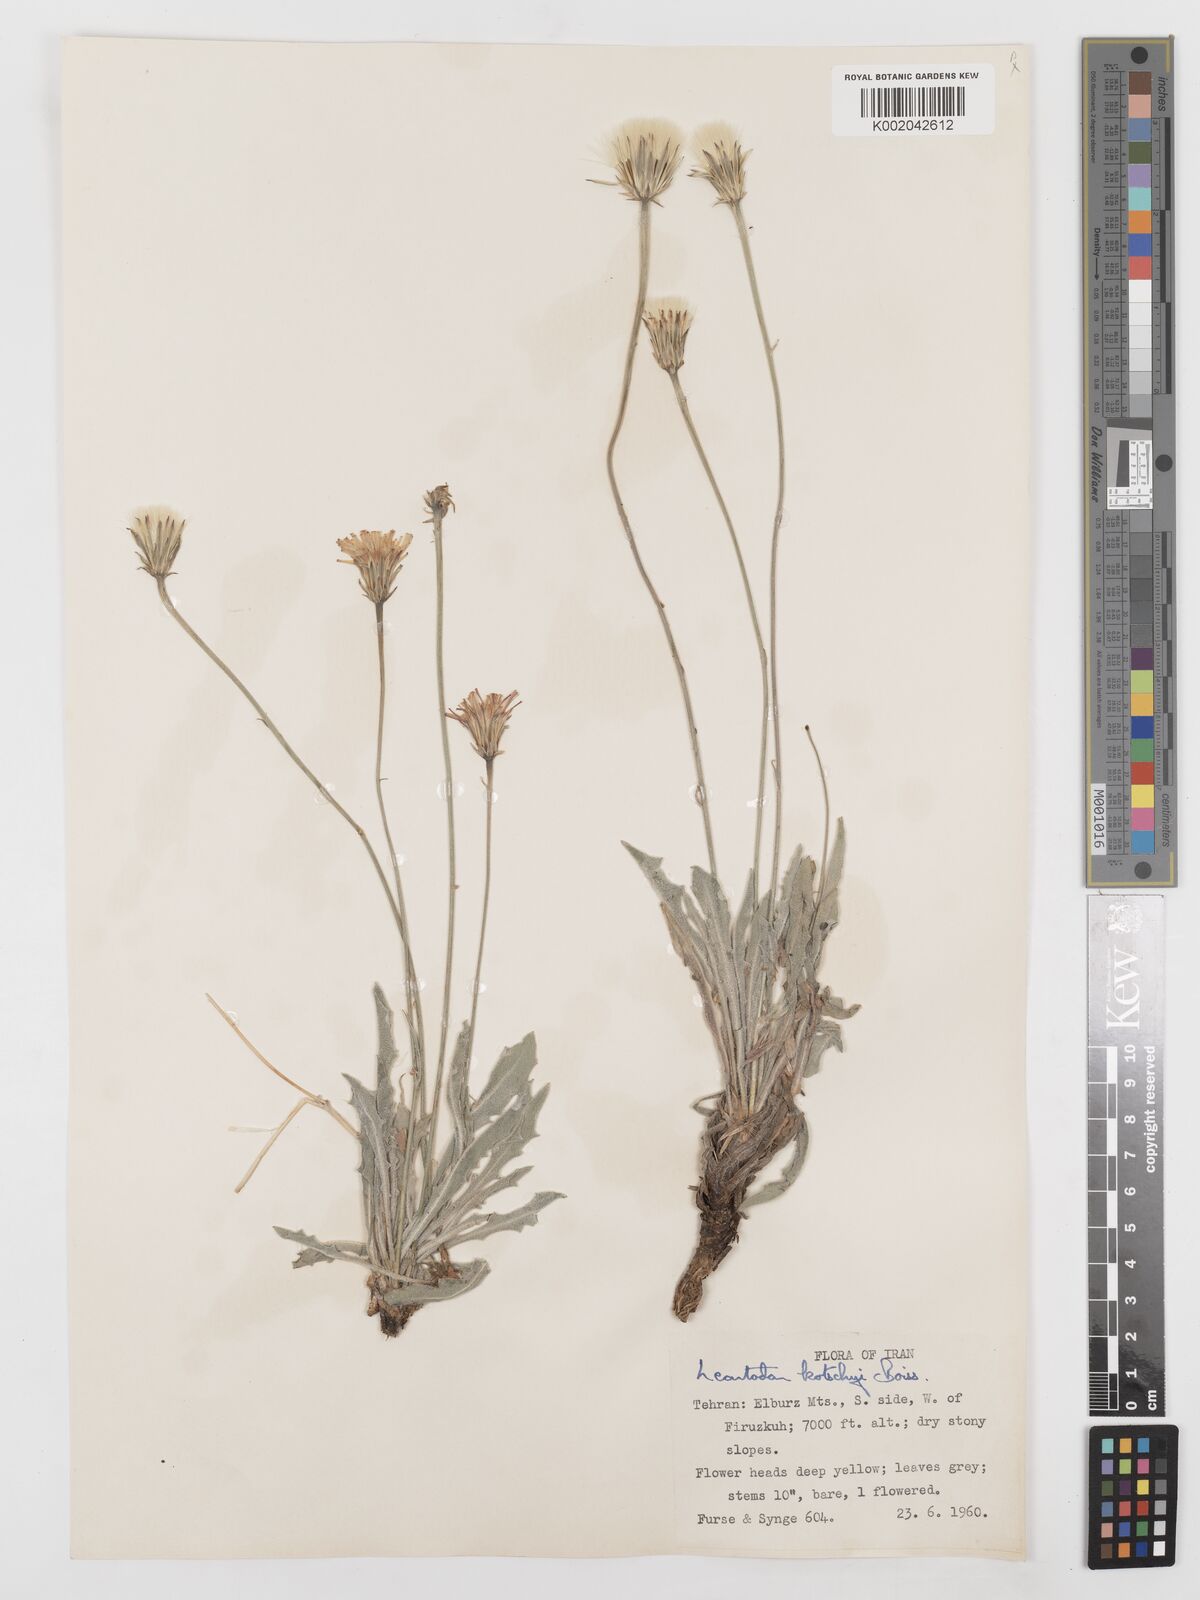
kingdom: Plantae
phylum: Tracheophyta
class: Magnoliopsida
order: Asterales
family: Asteraceae
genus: Leontodon
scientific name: Leontodon
